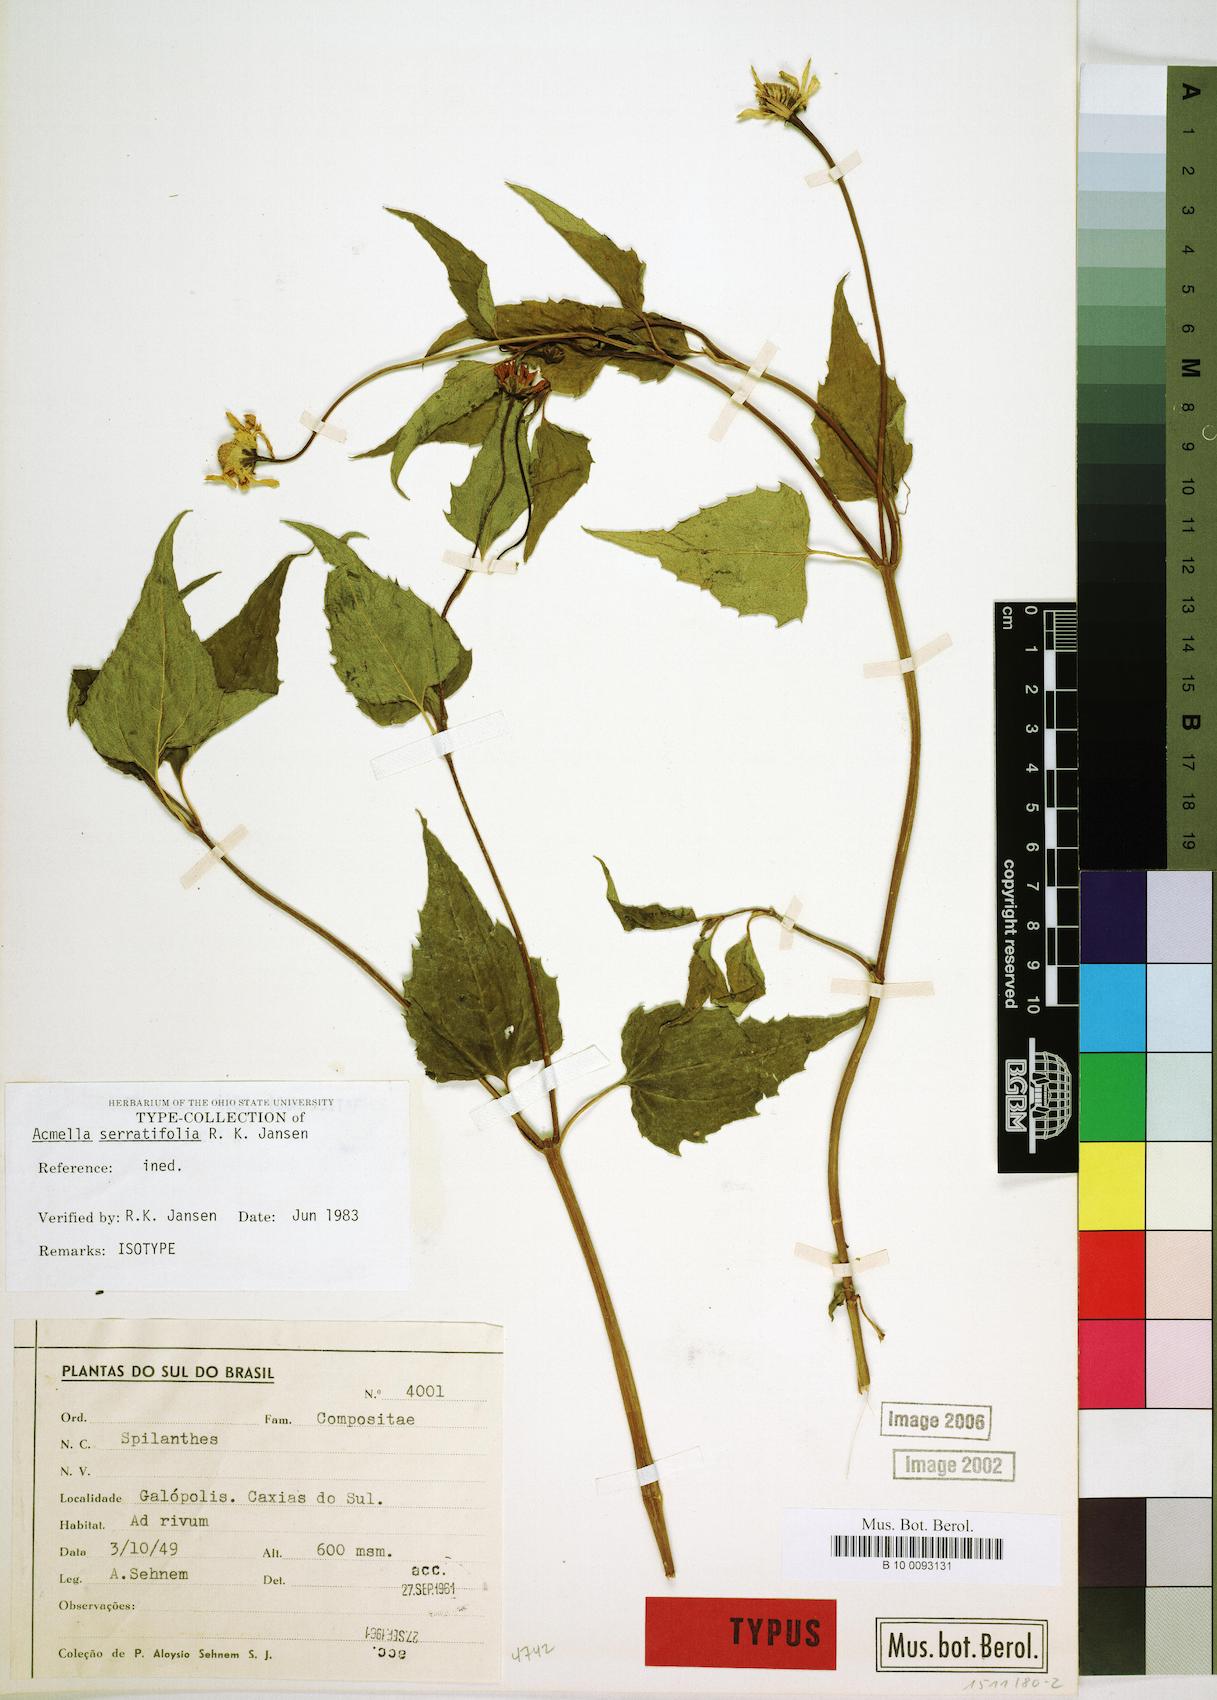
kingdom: Plantae
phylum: Tracheophyta
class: Magnoliopsida
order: Asterales
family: Asteraceae
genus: Acmella
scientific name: Acmella serratifolia
